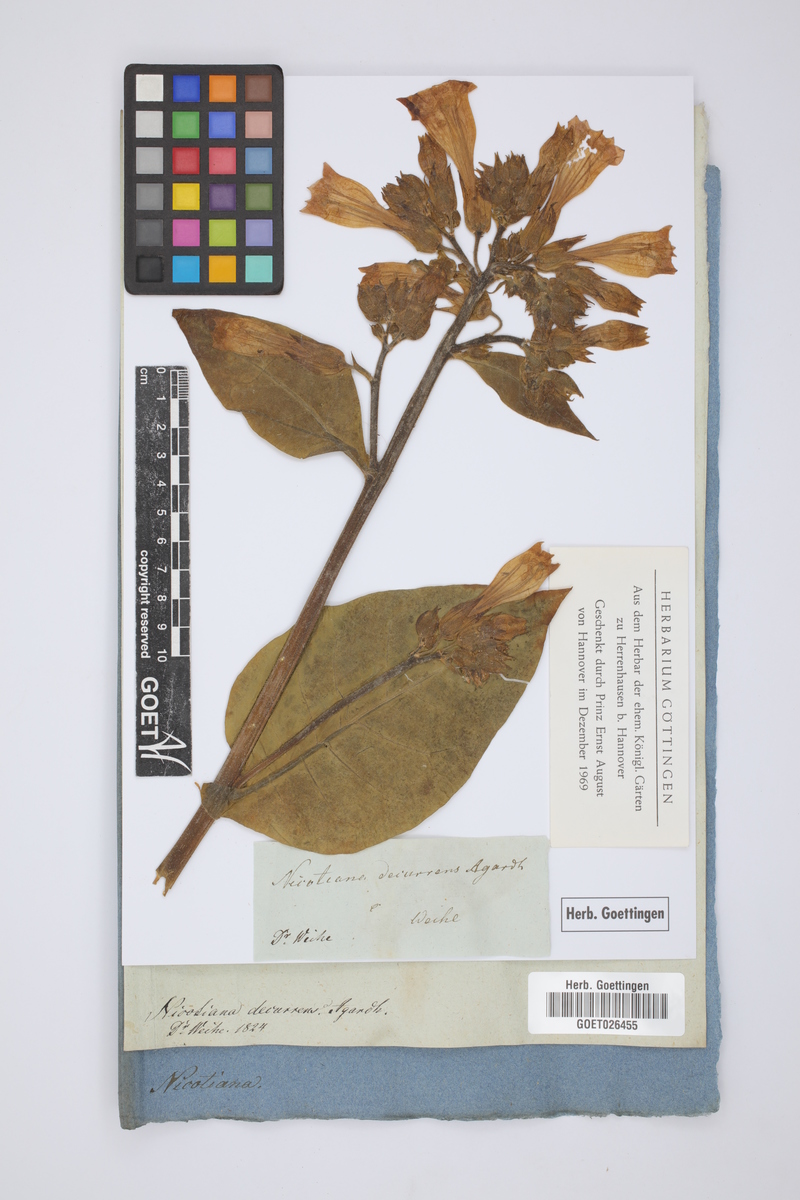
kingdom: Plantae
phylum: Tracheophyta
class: Magnoliopsida
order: Solanales
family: Solanaceae
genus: Nicotiana
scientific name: Nicotiana alata
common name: Jasmine tobacco
